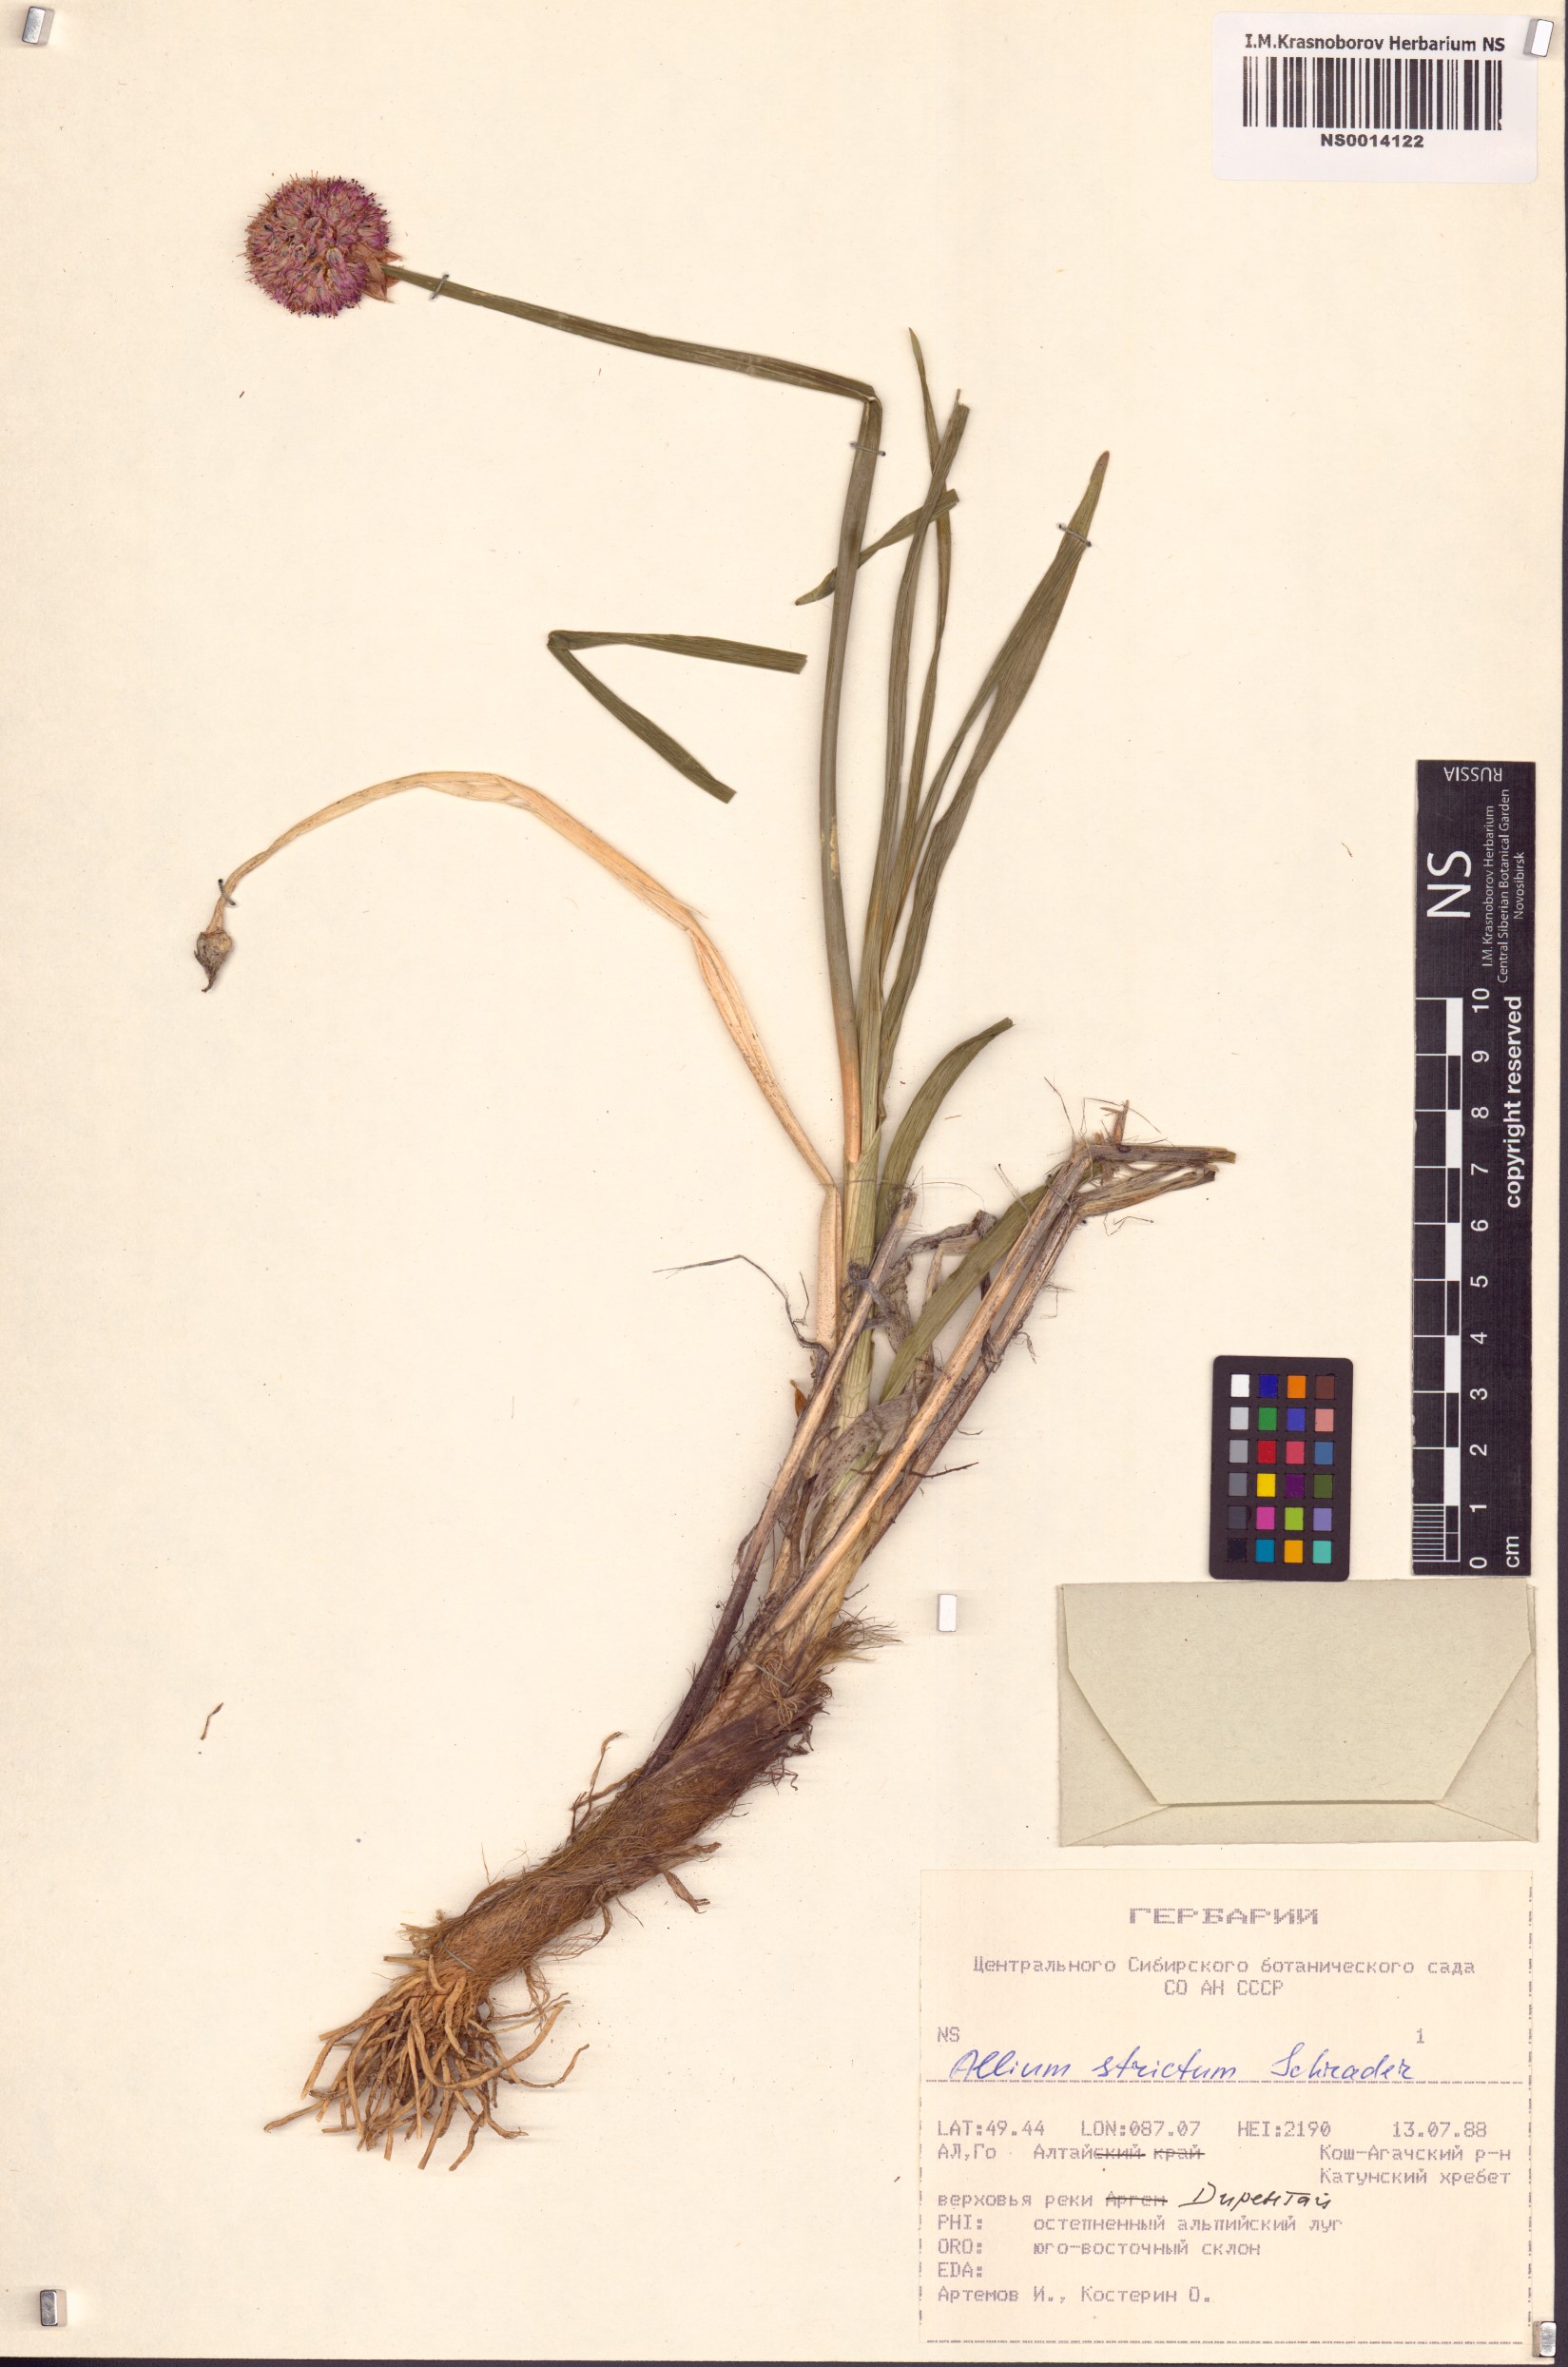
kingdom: Plantae
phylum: Tracheophyta
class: Liliopsida
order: Asparagales
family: Amaryllidaceae
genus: Allium
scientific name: Allium strictum
